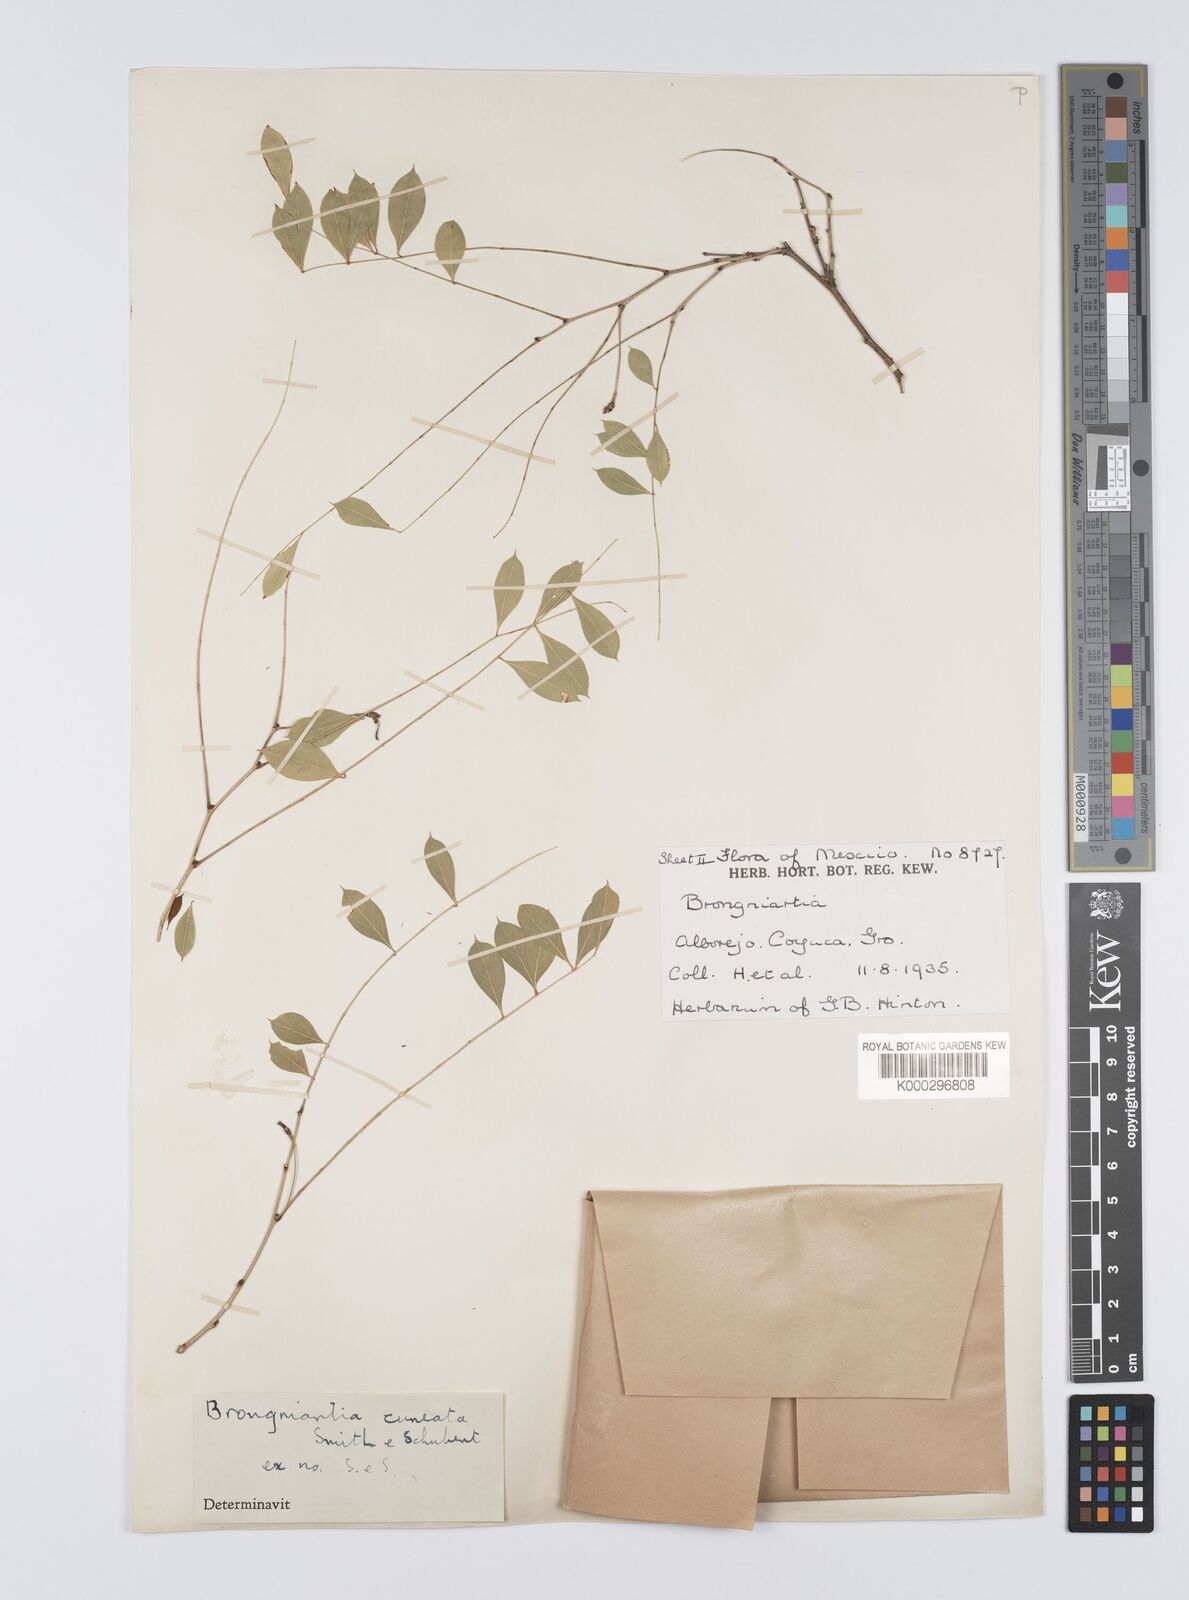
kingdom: Plantae
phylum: Tracheophyta
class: Magnoliopsida
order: Fabales
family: Fabaceae
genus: Brongniartia
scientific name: Brongniartia funiculata
